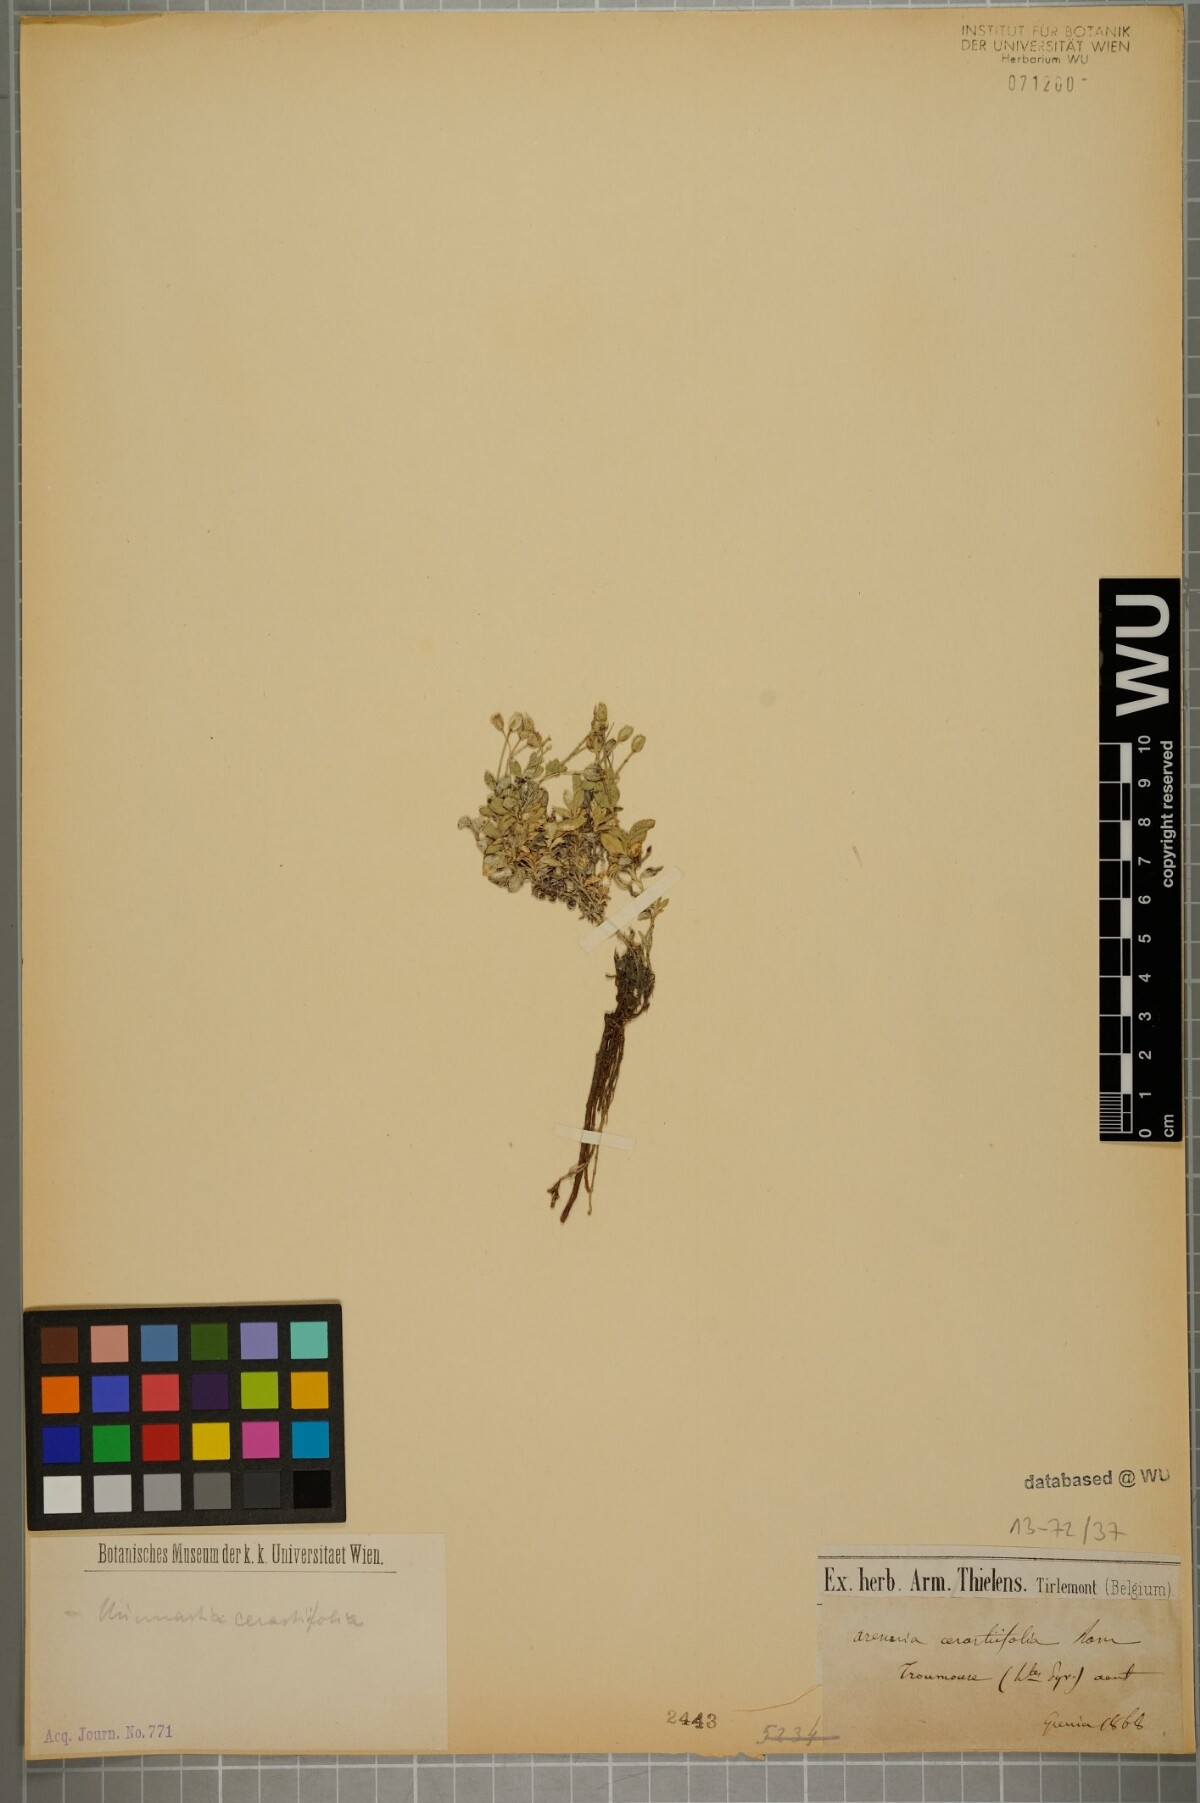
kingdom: Plantae
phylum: Tracheophyta
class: Magnoliopsida
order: Caryophyllales
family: Caryophyllaceae
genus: Facchinia
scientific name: Facchinia cerastiifolia
